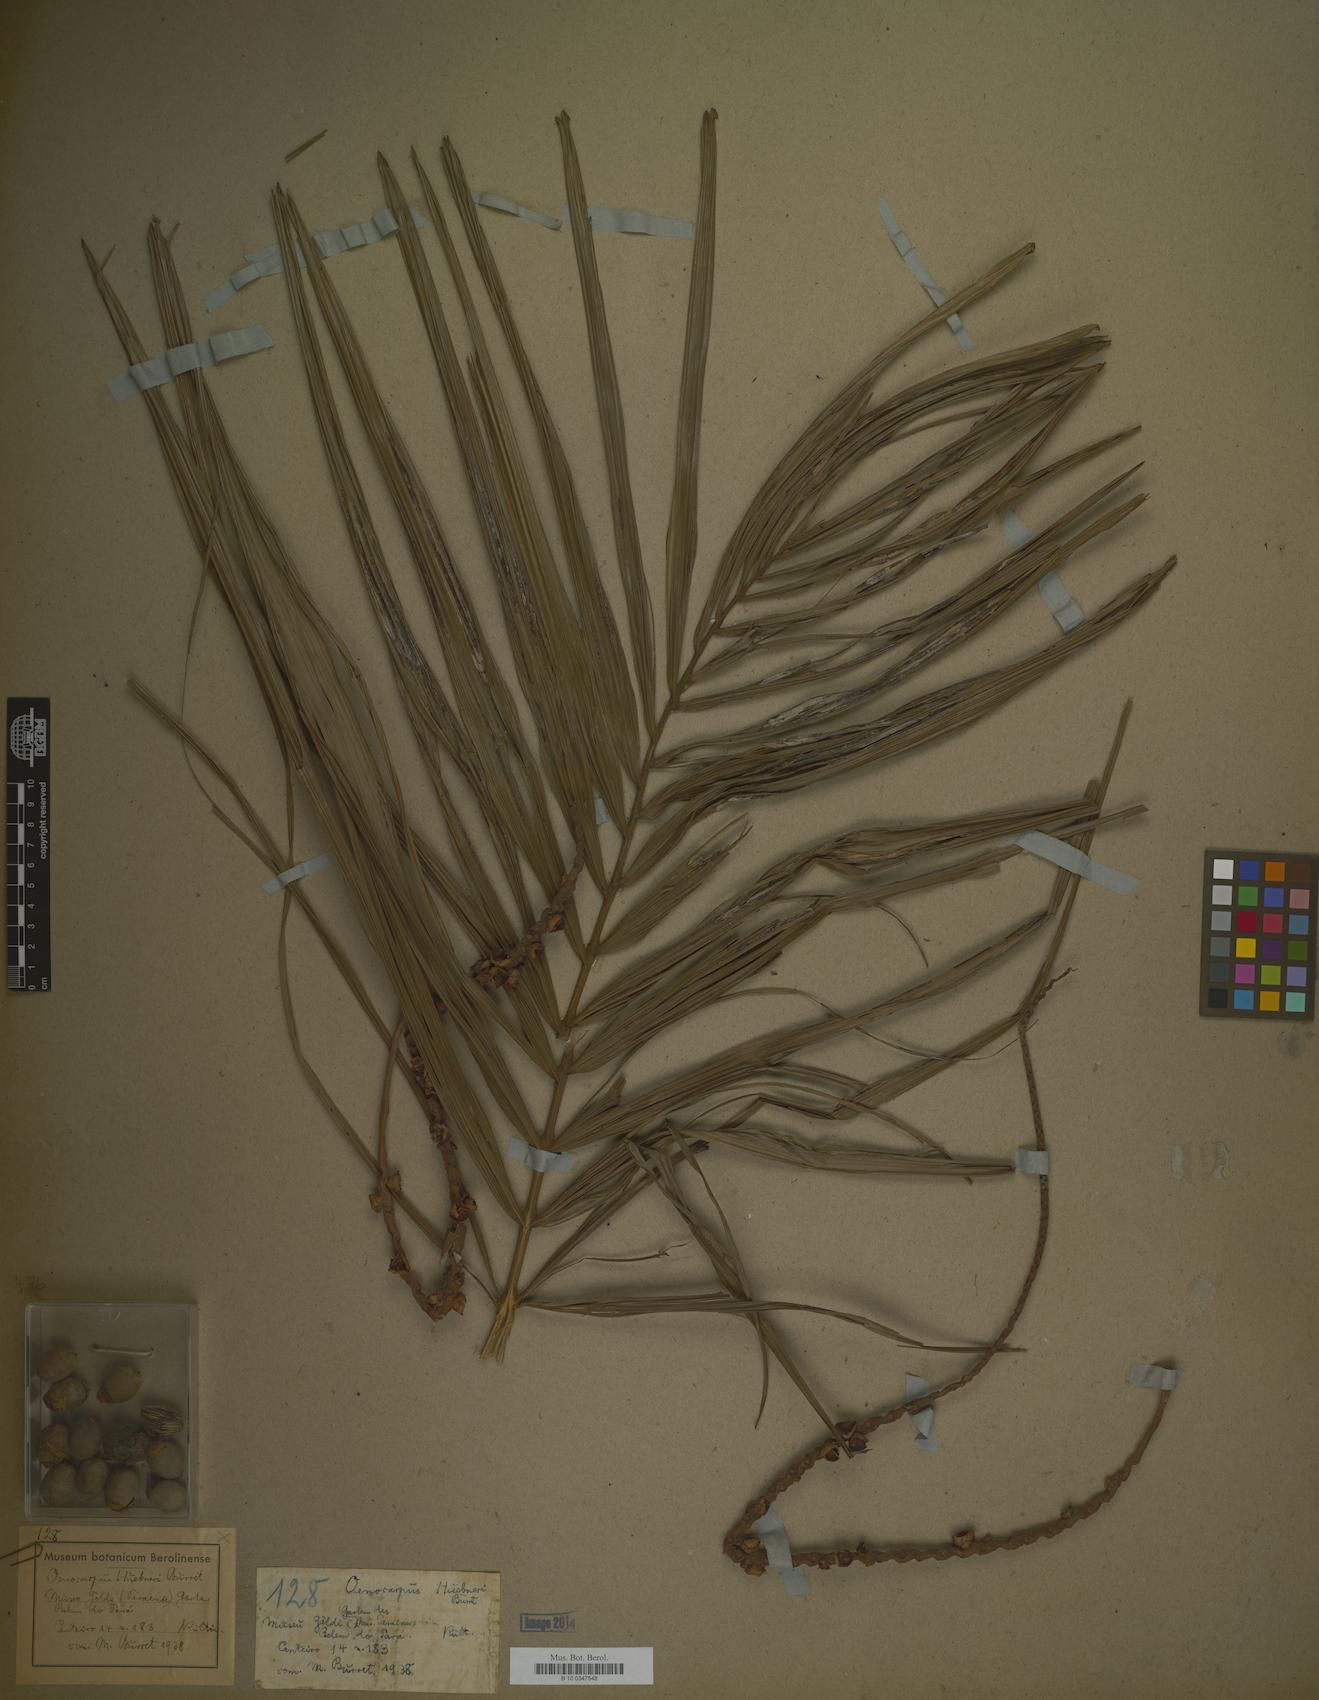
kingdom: Plantae
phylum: Tracheophyta
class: Liliopsida
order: Arecales
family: Arecaceae
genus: Oenocarpus
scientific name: Oenocarpus minor
